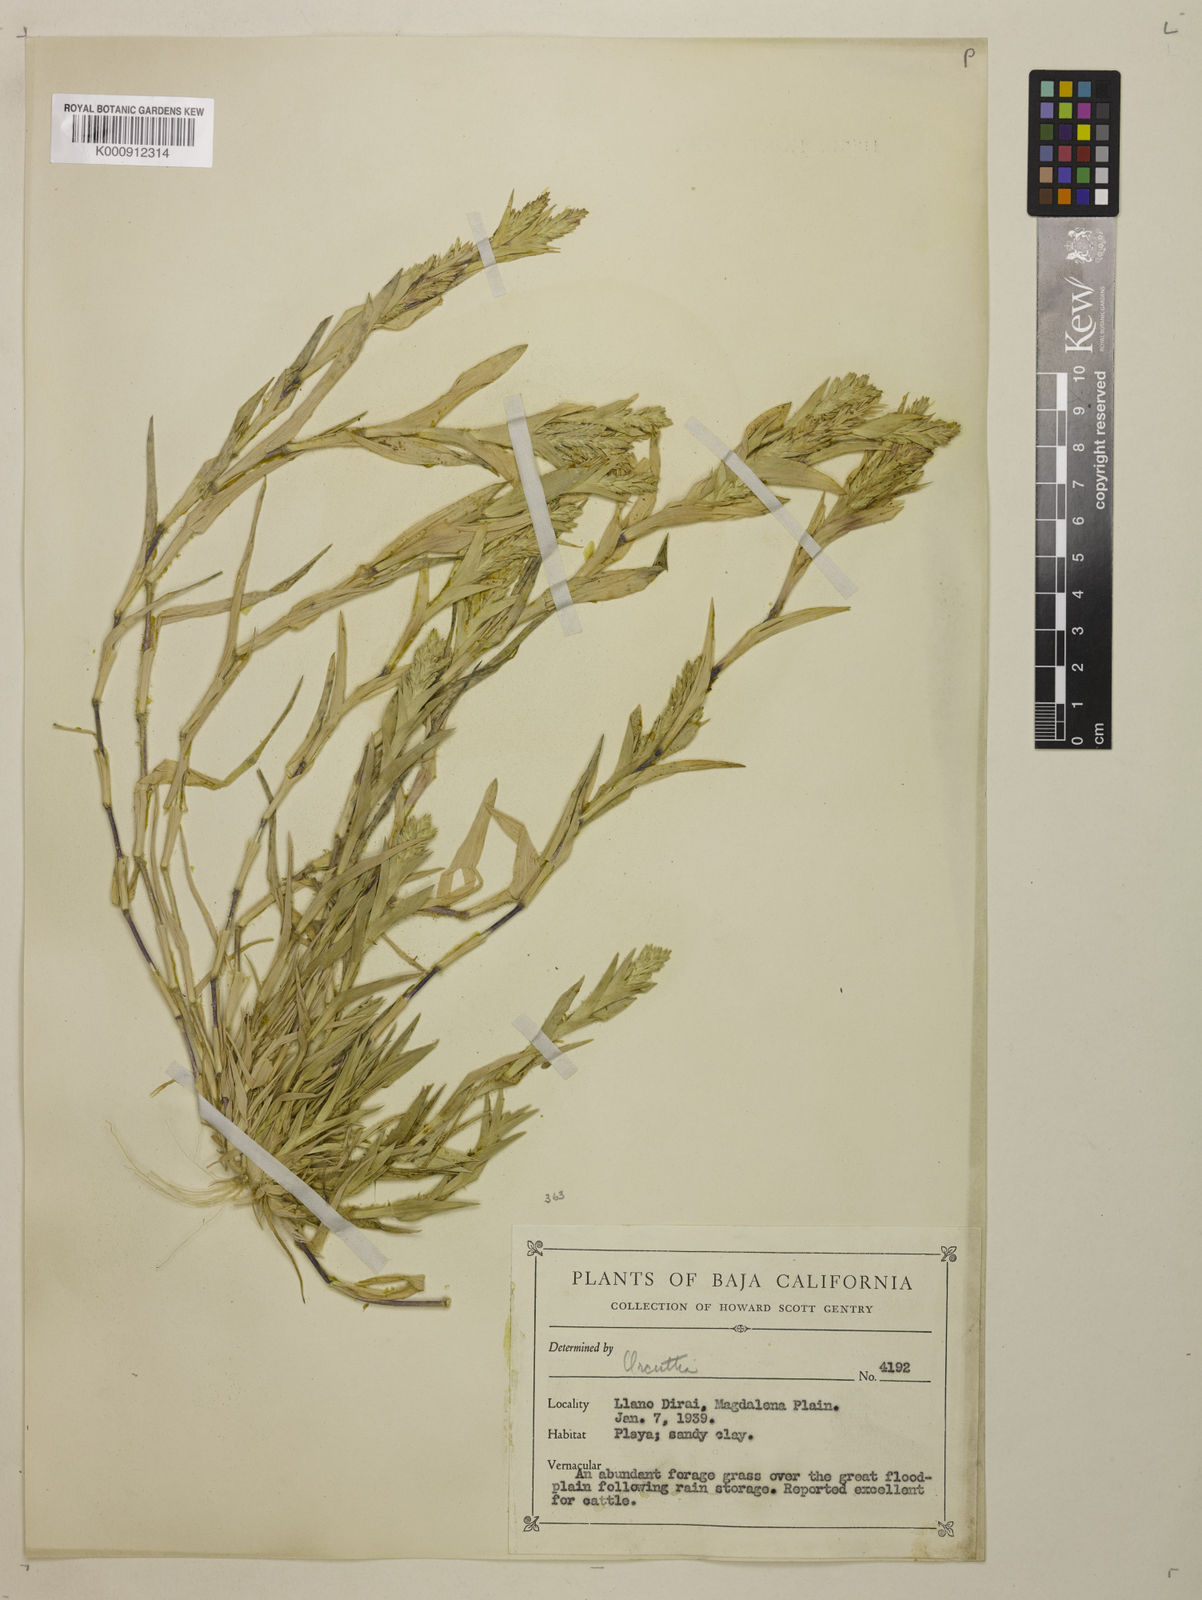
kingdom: Plantae
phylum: Tracheophyta
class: Liliopsida
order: Poales
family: Poaceae
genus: Tuctoria
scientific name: Tuctoria fragilis
